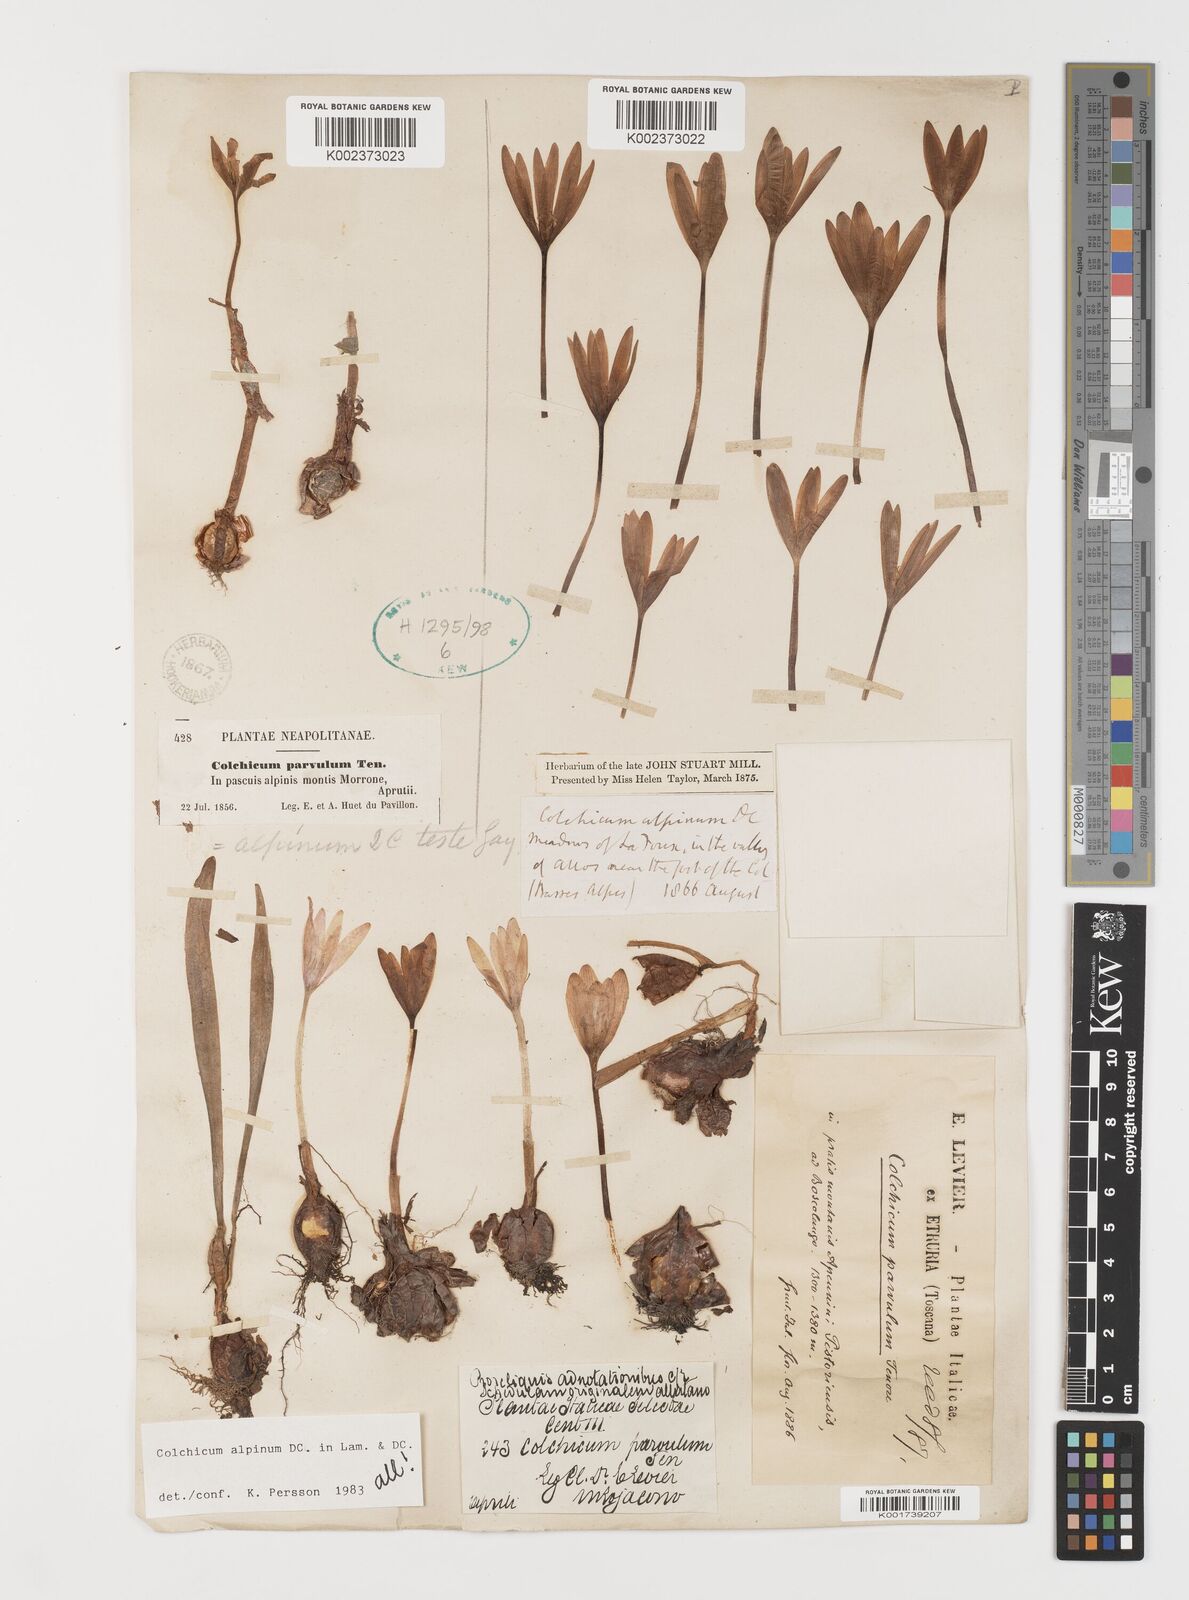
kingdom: Plantae
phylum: Tracheophyta
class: Liliopsida
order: Liliales
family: Colchicaceae
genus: Colchicum
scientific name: Colchicum alpinum
